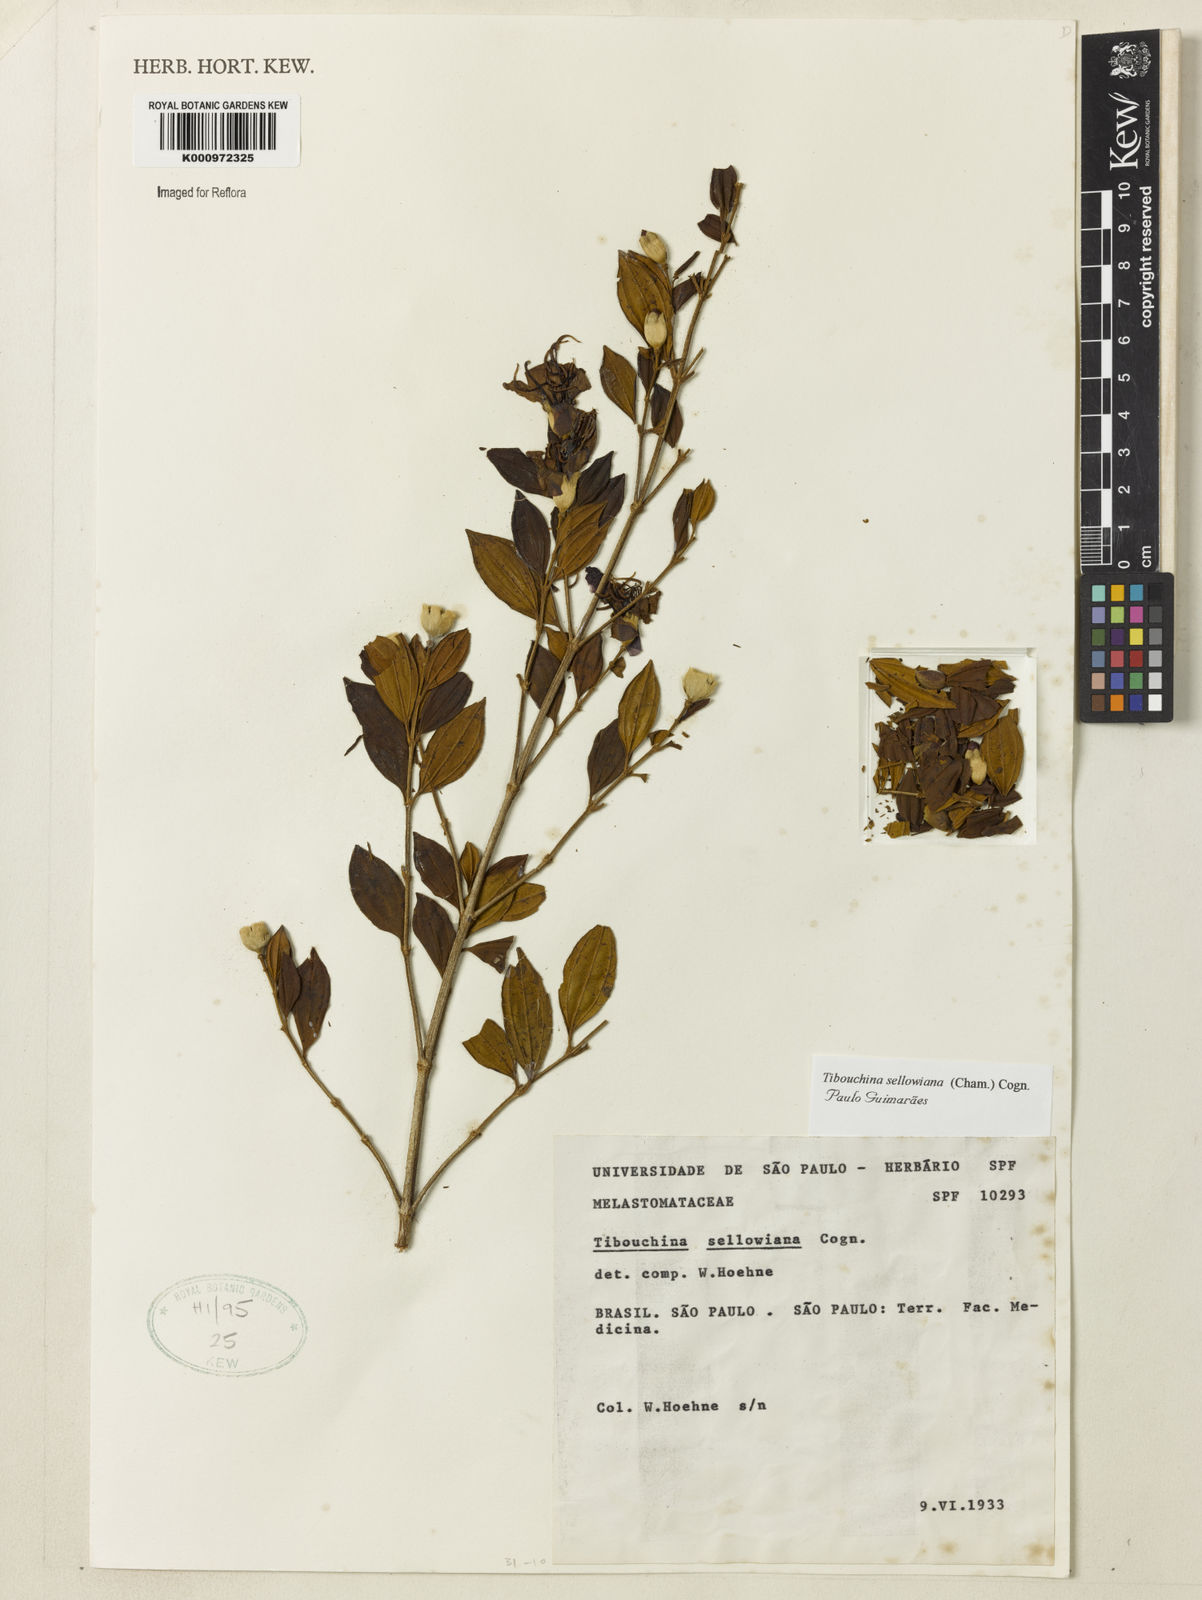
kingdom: Plantae
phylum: Tracheophyta
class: Magnoliopsida
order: Myrtales
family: Melastomataceae
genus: Pleroma
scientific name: Pleroma sellowianum
